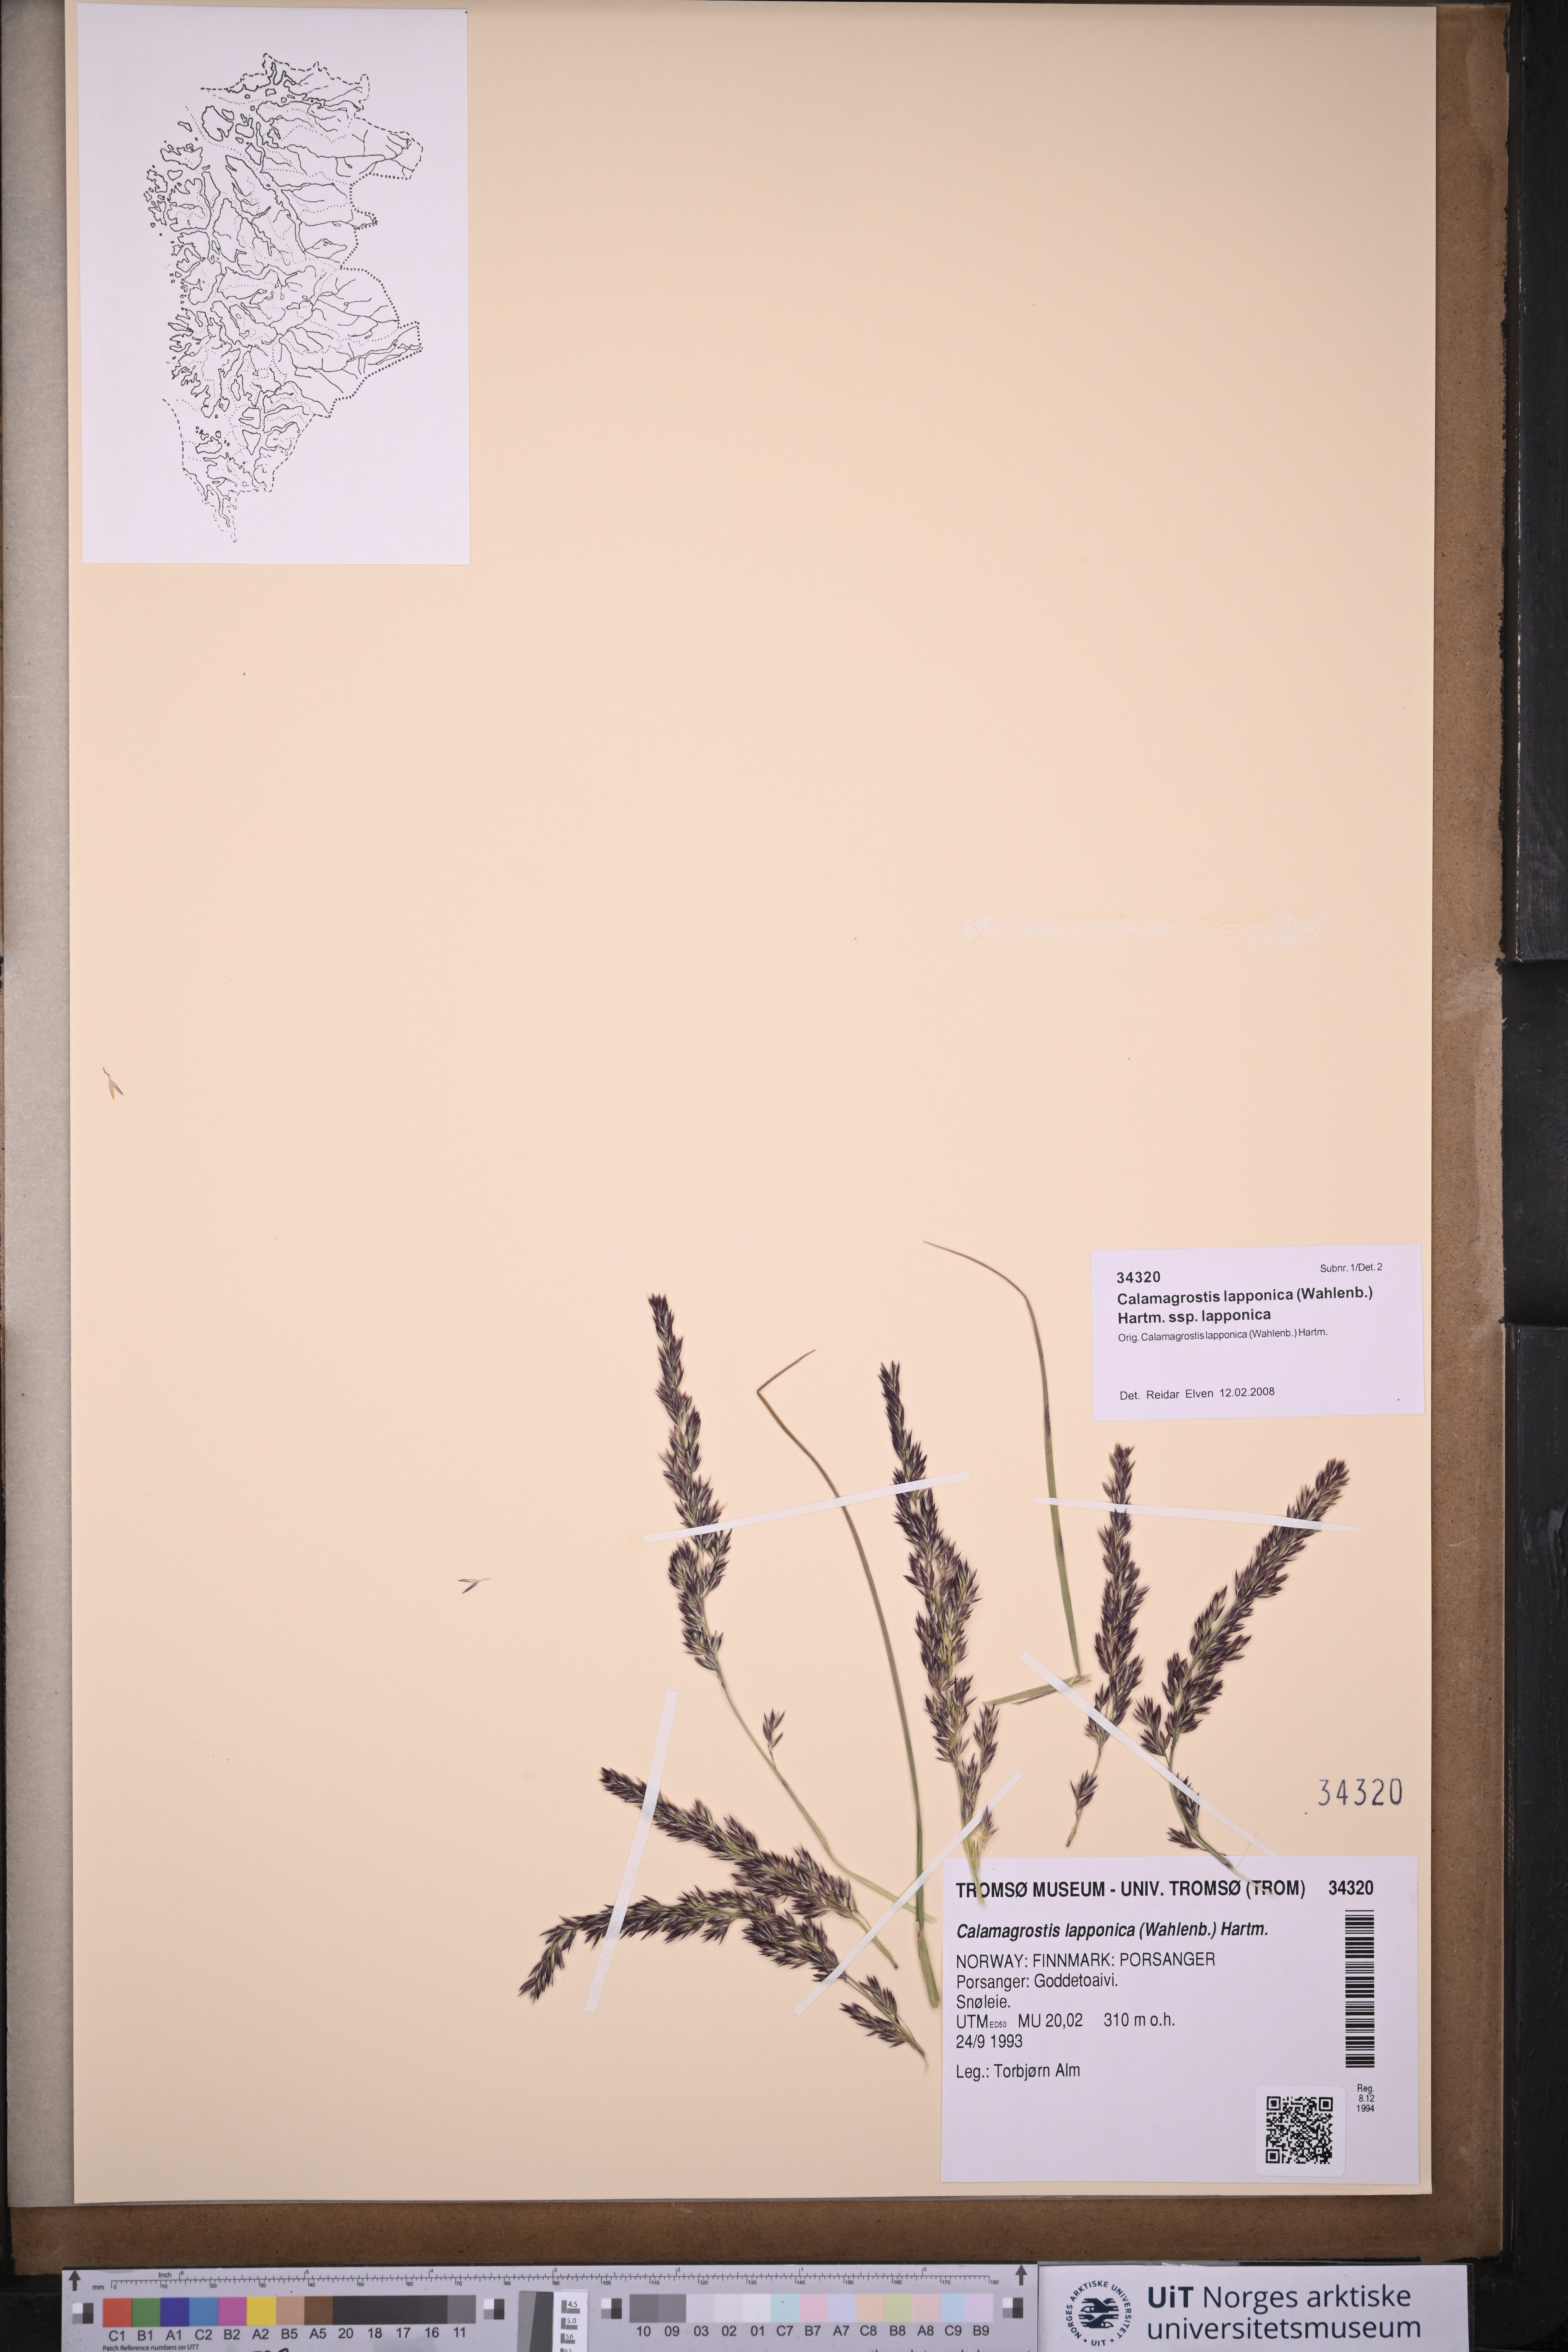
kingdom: Plantae
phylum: Tracheophyta
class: Liliopsida
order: Poales
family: Poaceae
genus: Calamagrostis
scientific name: Calamagrostis lapponica
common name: Lapland reedgrass
